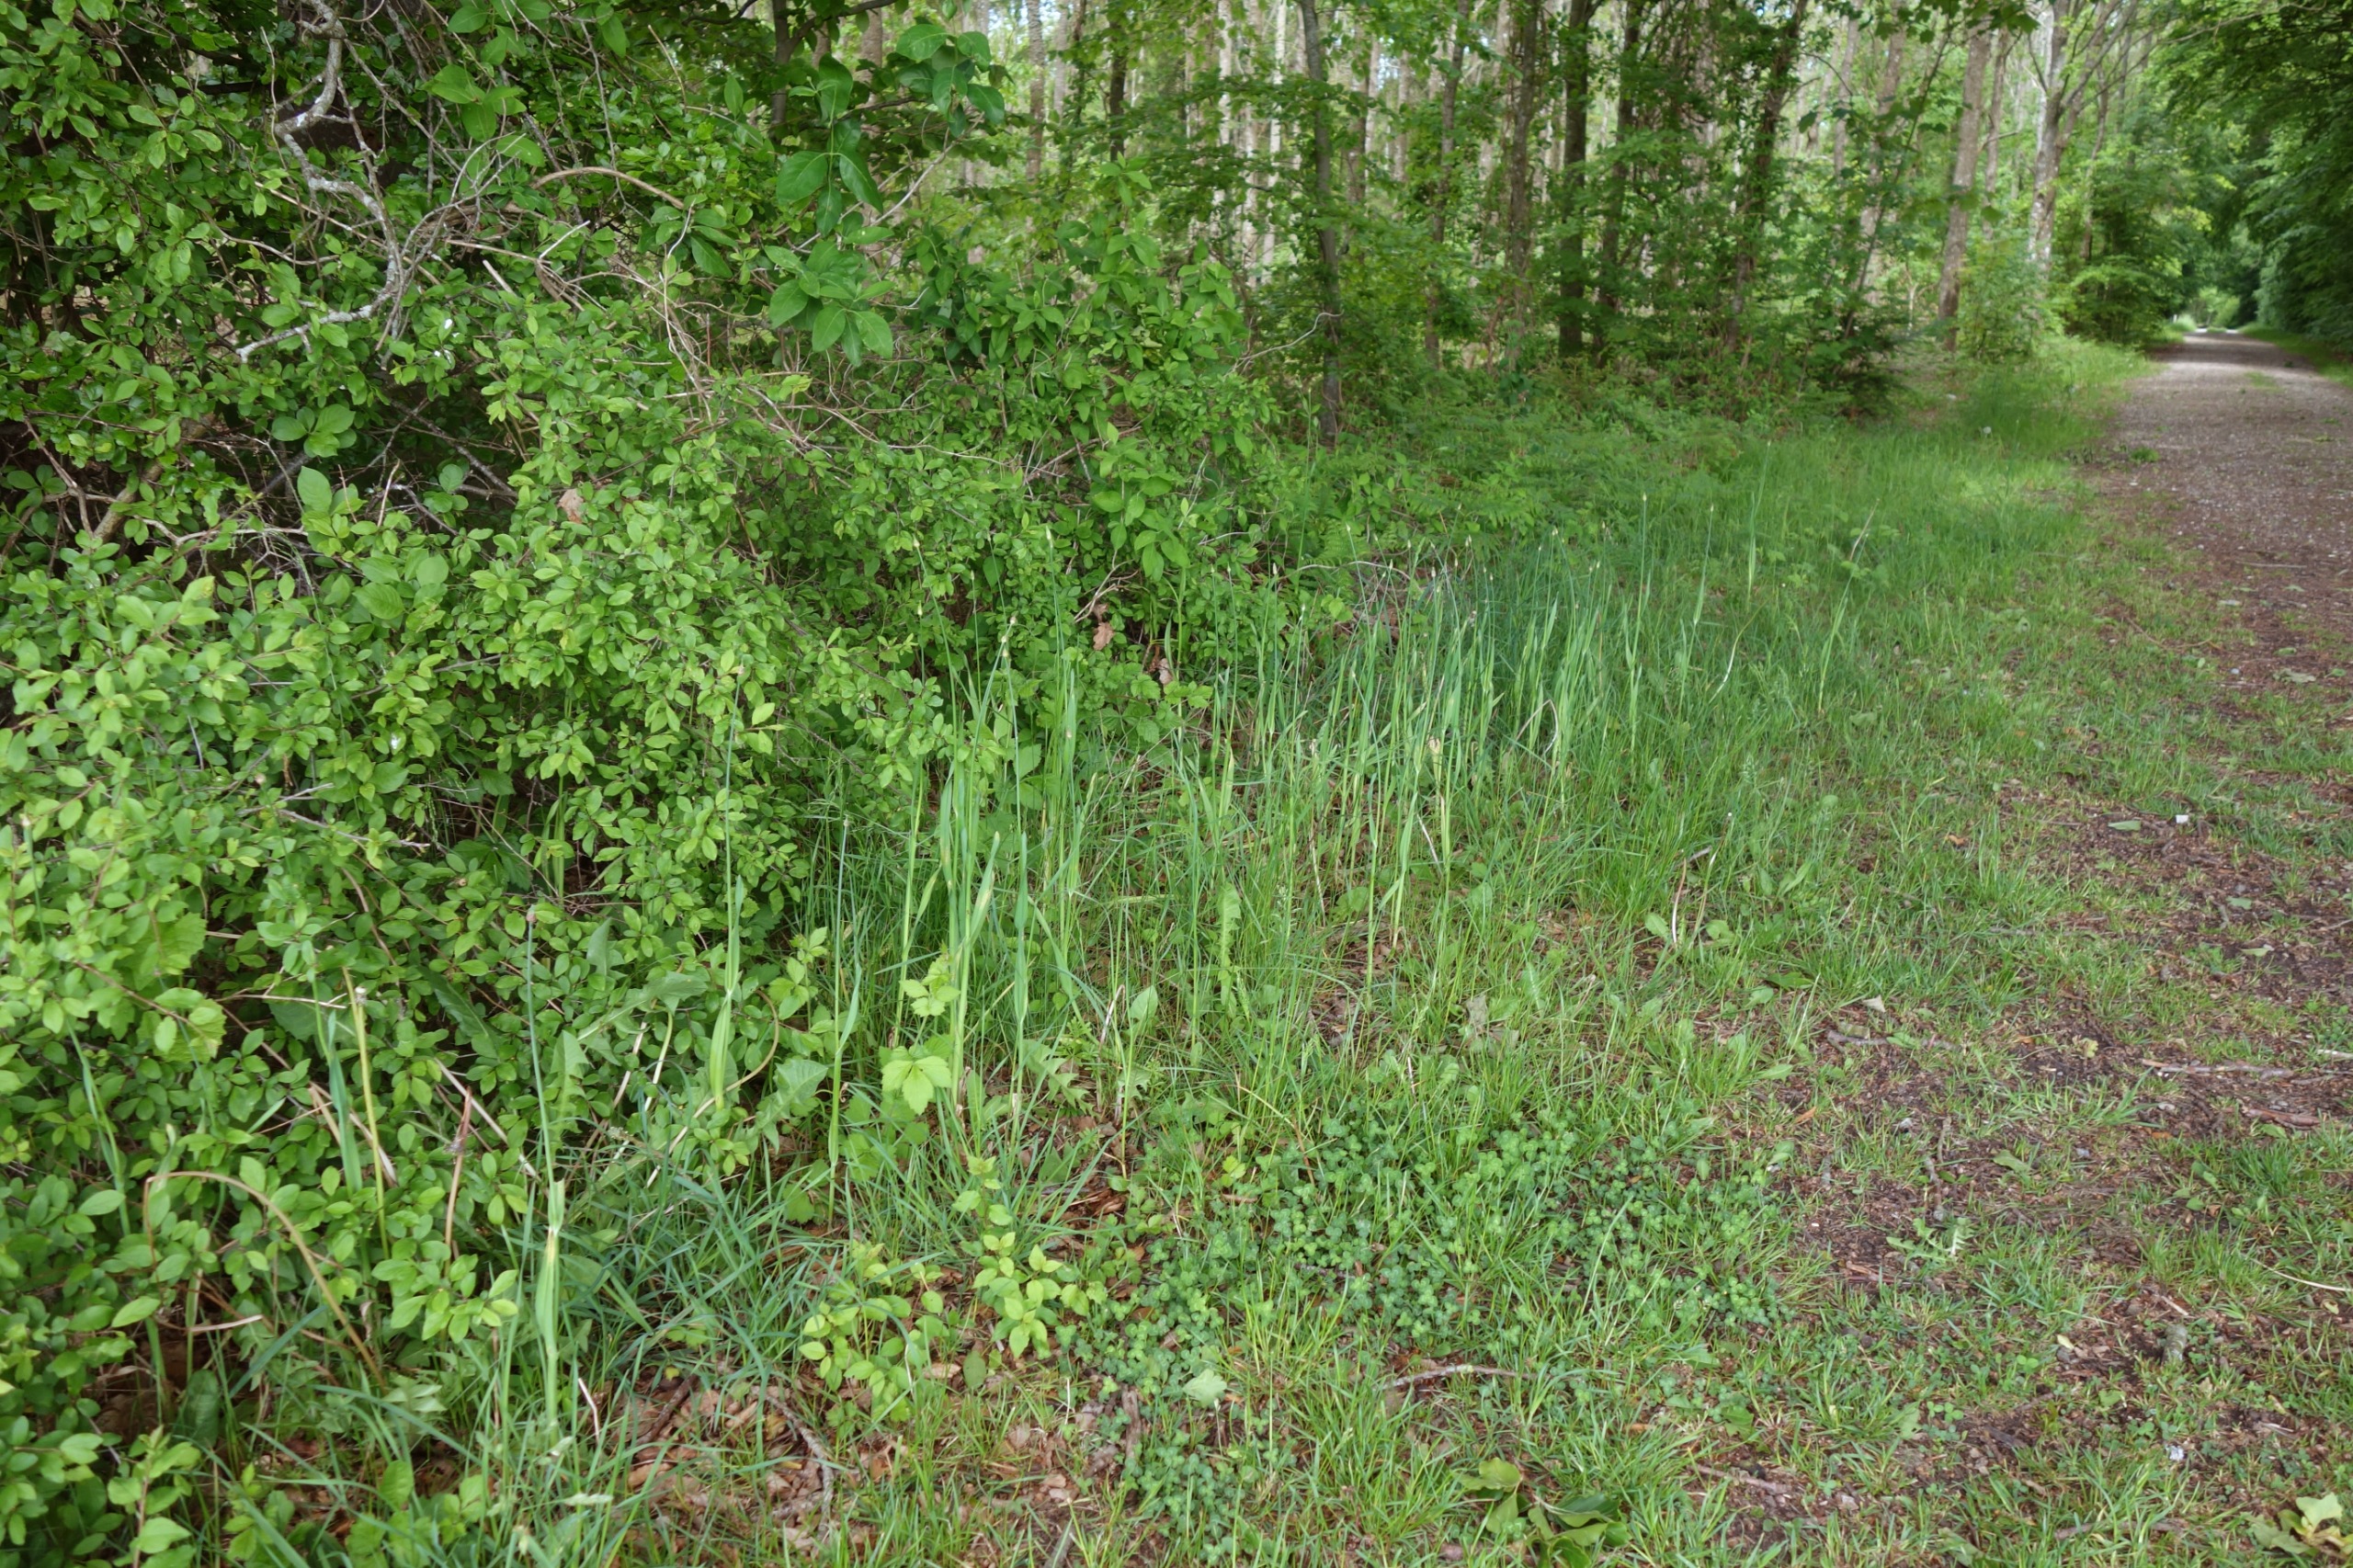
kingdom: Plantae
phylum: Tracheophyta
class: Liliopsida
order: Asparagales
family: Amaryllidaceae
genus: Allium
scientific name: Allium scorodoprasum
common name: Skov-løg
